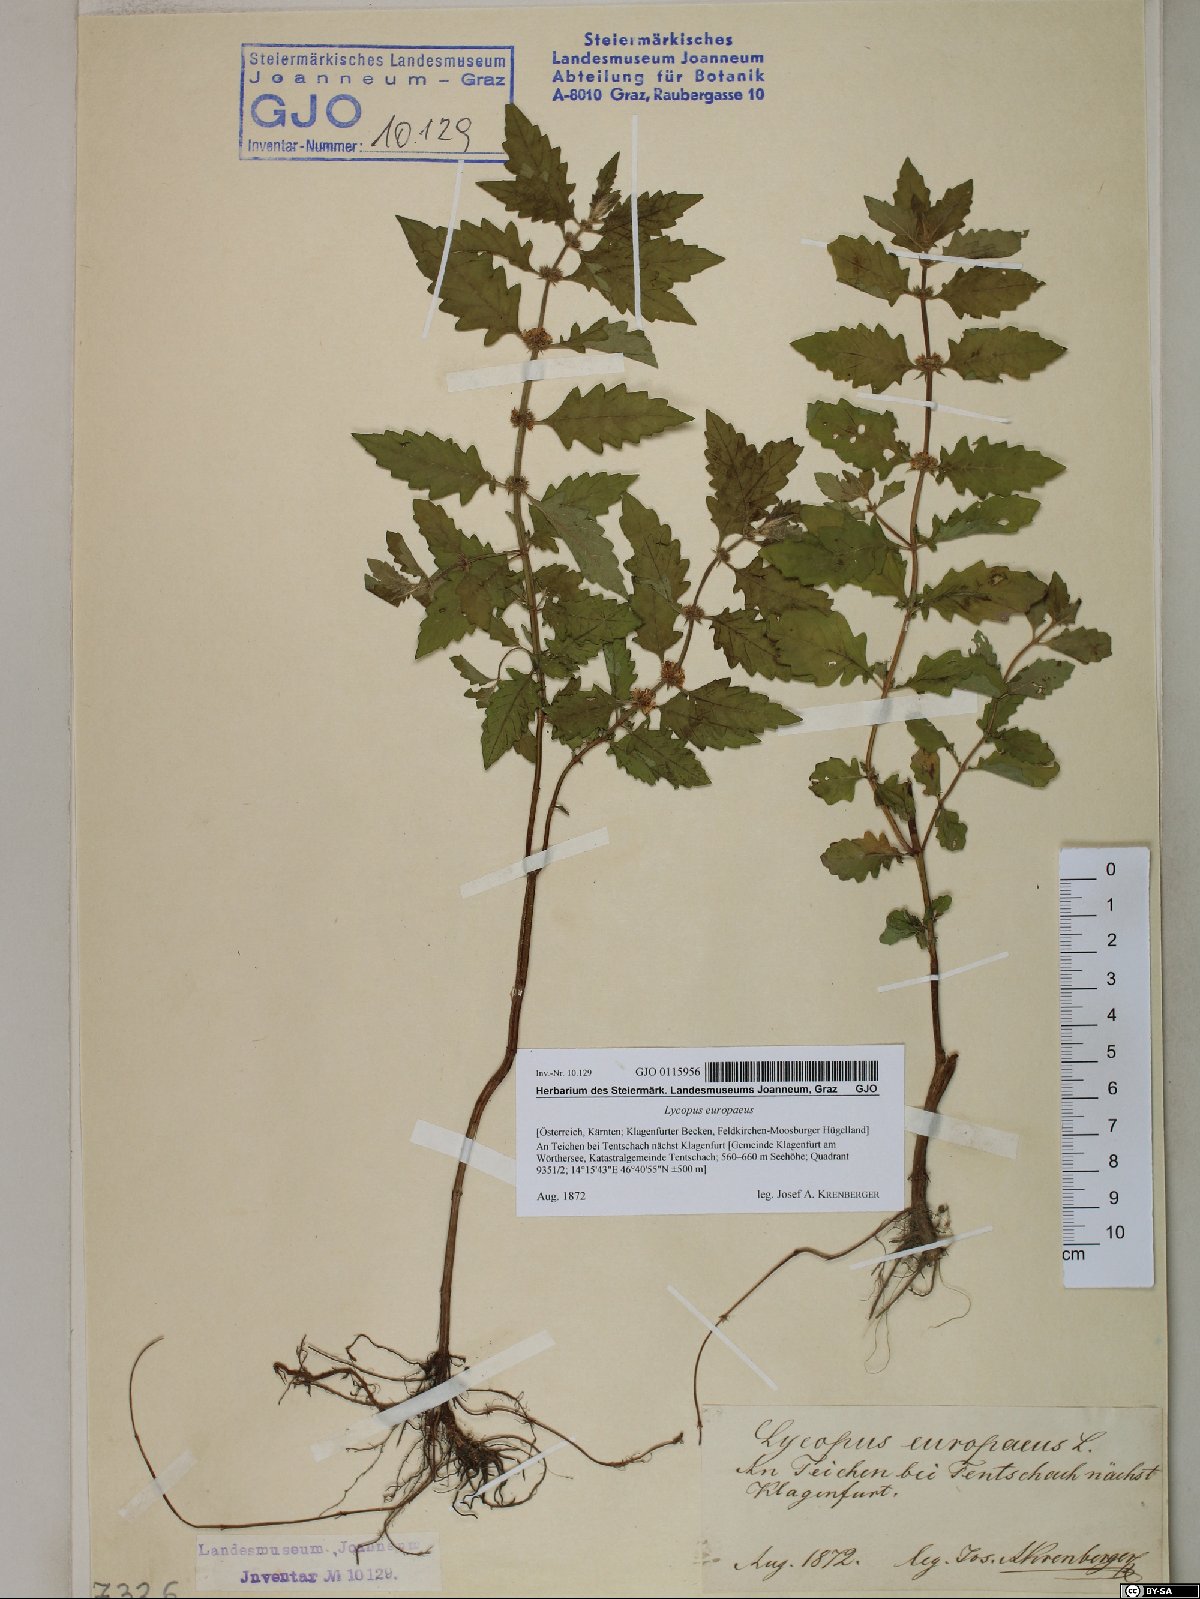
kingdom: Plantae
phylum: Tracheophyta
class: Magnoliopsida
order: Lamiales
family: Lamiaceae
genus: Lycopus
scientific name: Lycopus europaeus
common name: European bugleweed
